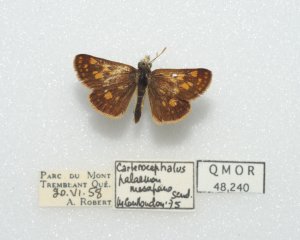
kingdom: Animalia
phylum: Arthropoda
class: Insecta
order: Lepidoptera
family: Hesperiidae
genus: Carterocephalus
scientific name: Carterocephalus palaemon
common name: Chequered Skipper
